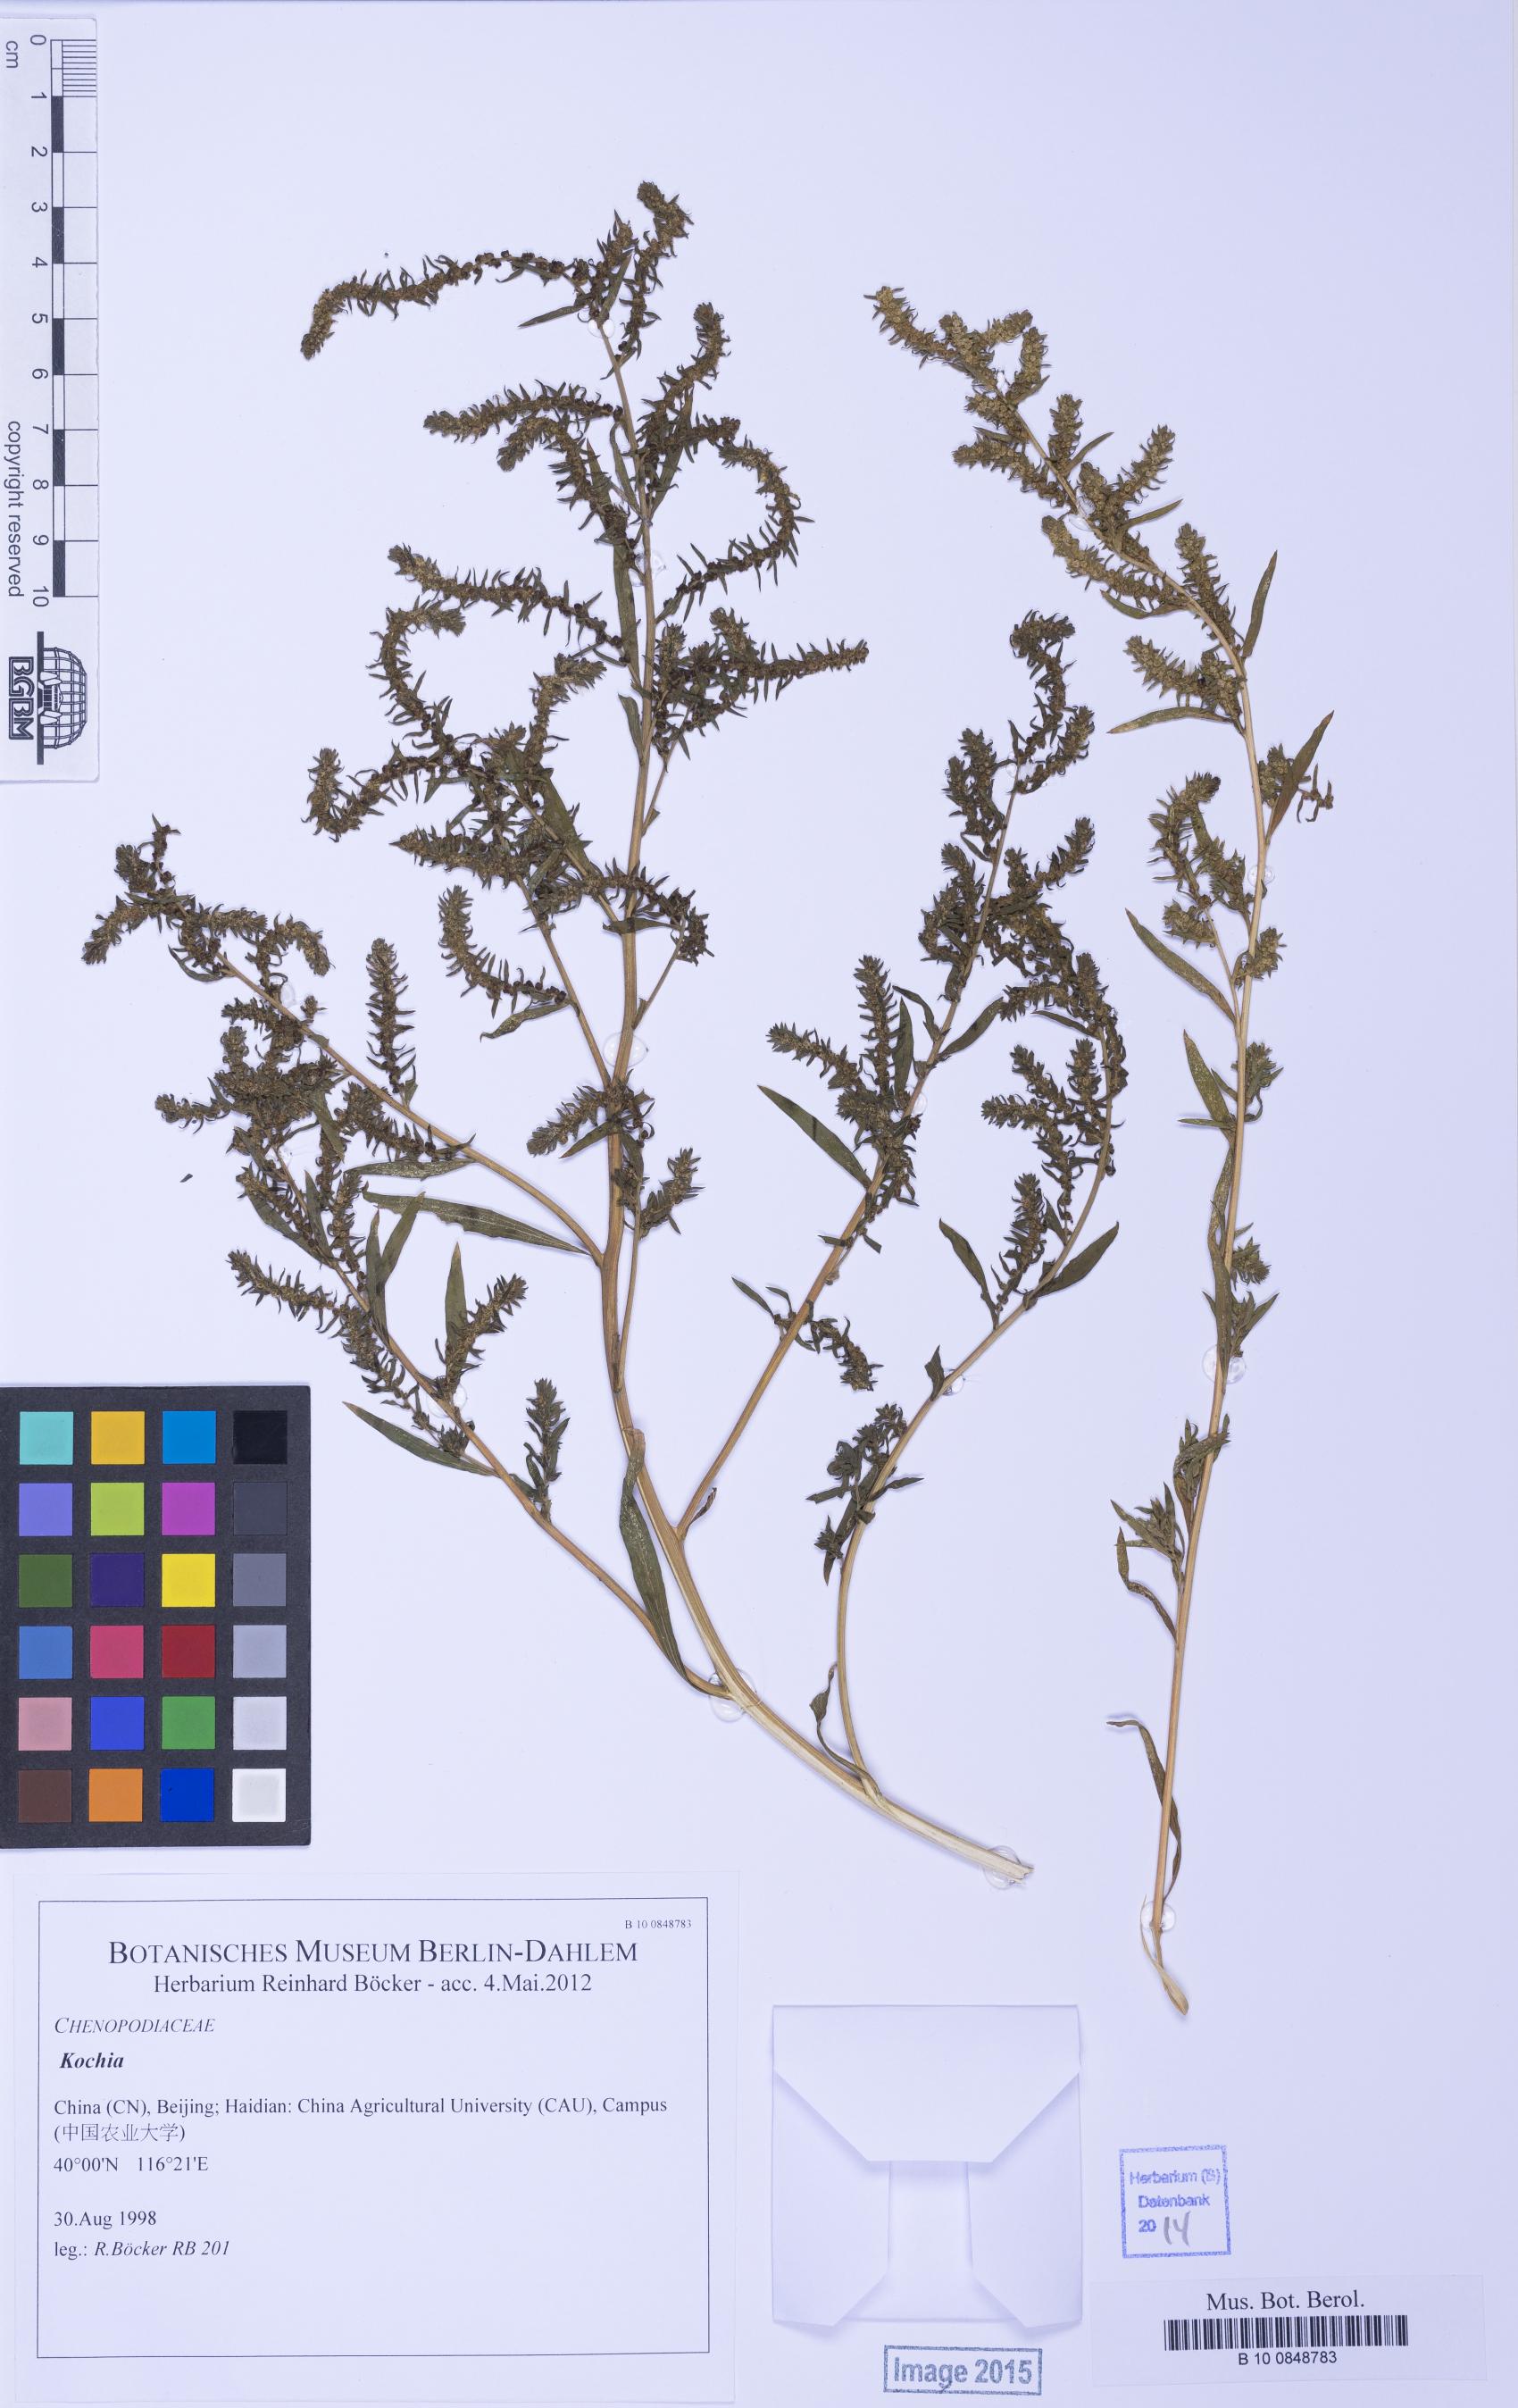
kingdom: Plantae
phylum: Tracheophyta
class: Magnoliopsida
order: Caryophyllales
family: Amaranthaceae
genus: Bassia
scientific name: Bassia
